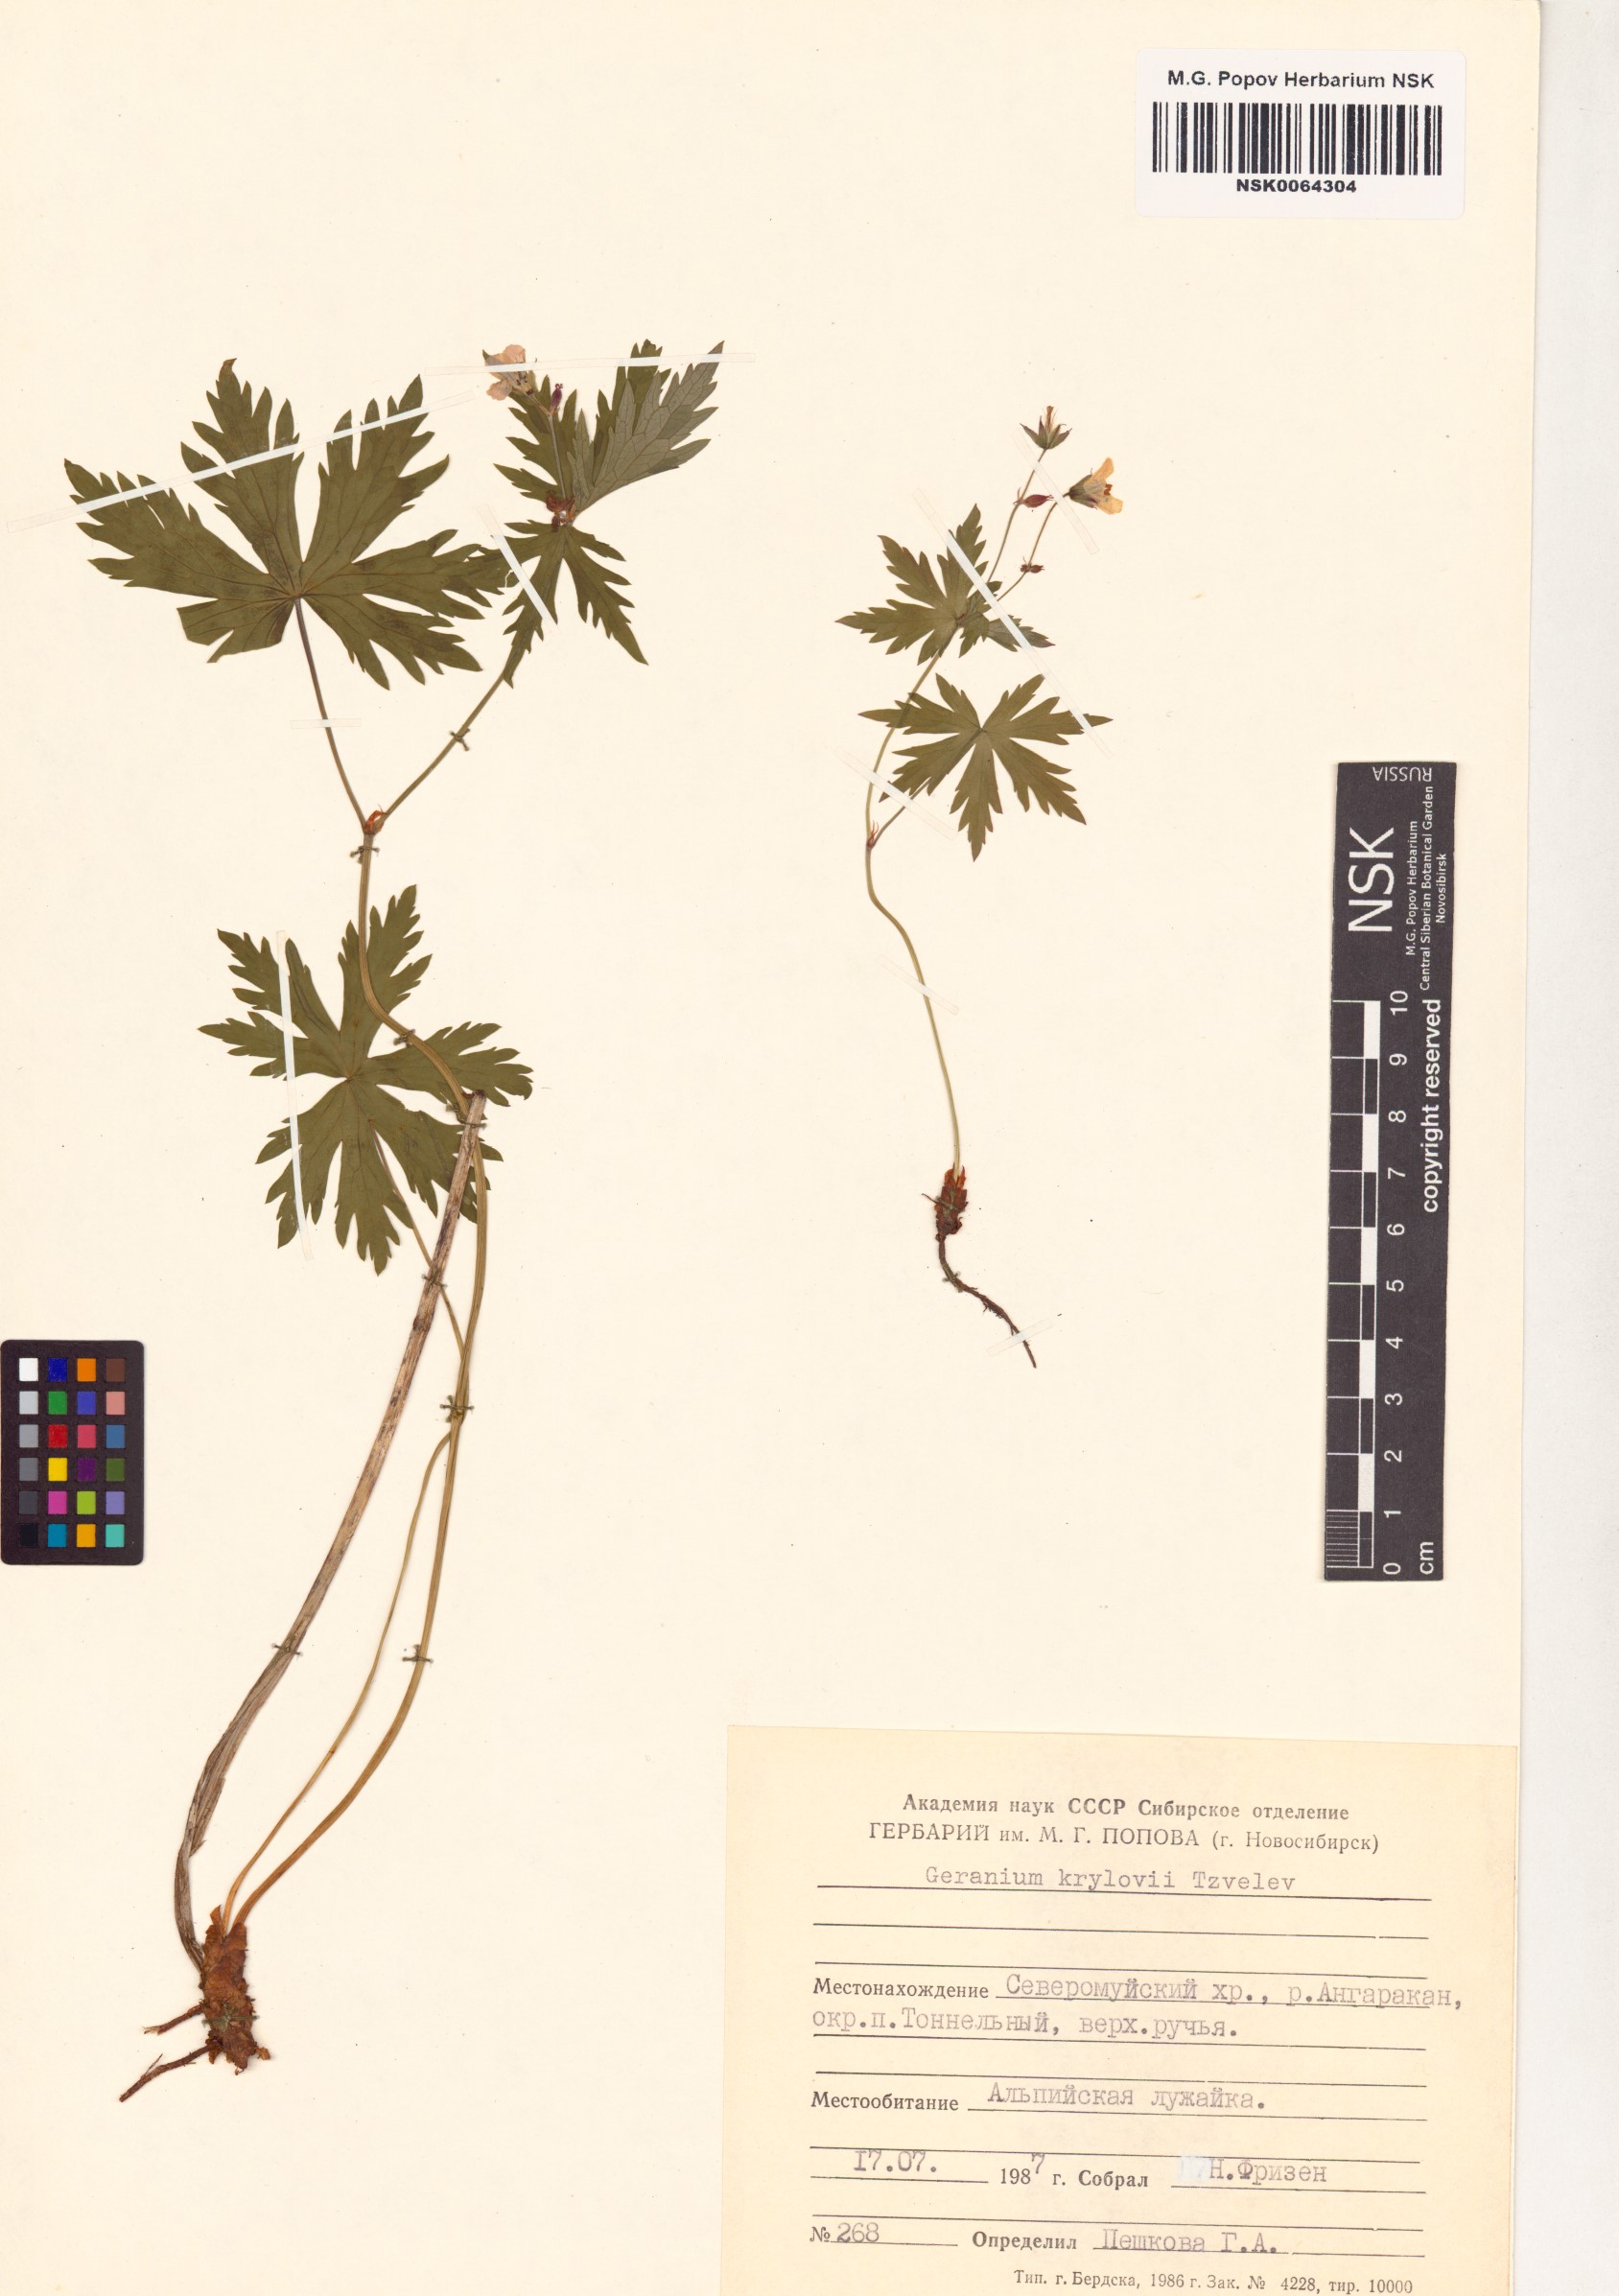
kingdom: Plantae
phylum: Tracheophyta
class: Magnoliopsida
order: Geraniales
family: Geraniaceae
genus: Geranium
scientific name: Geranium sylvaticum
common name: Wood crane's-bill
